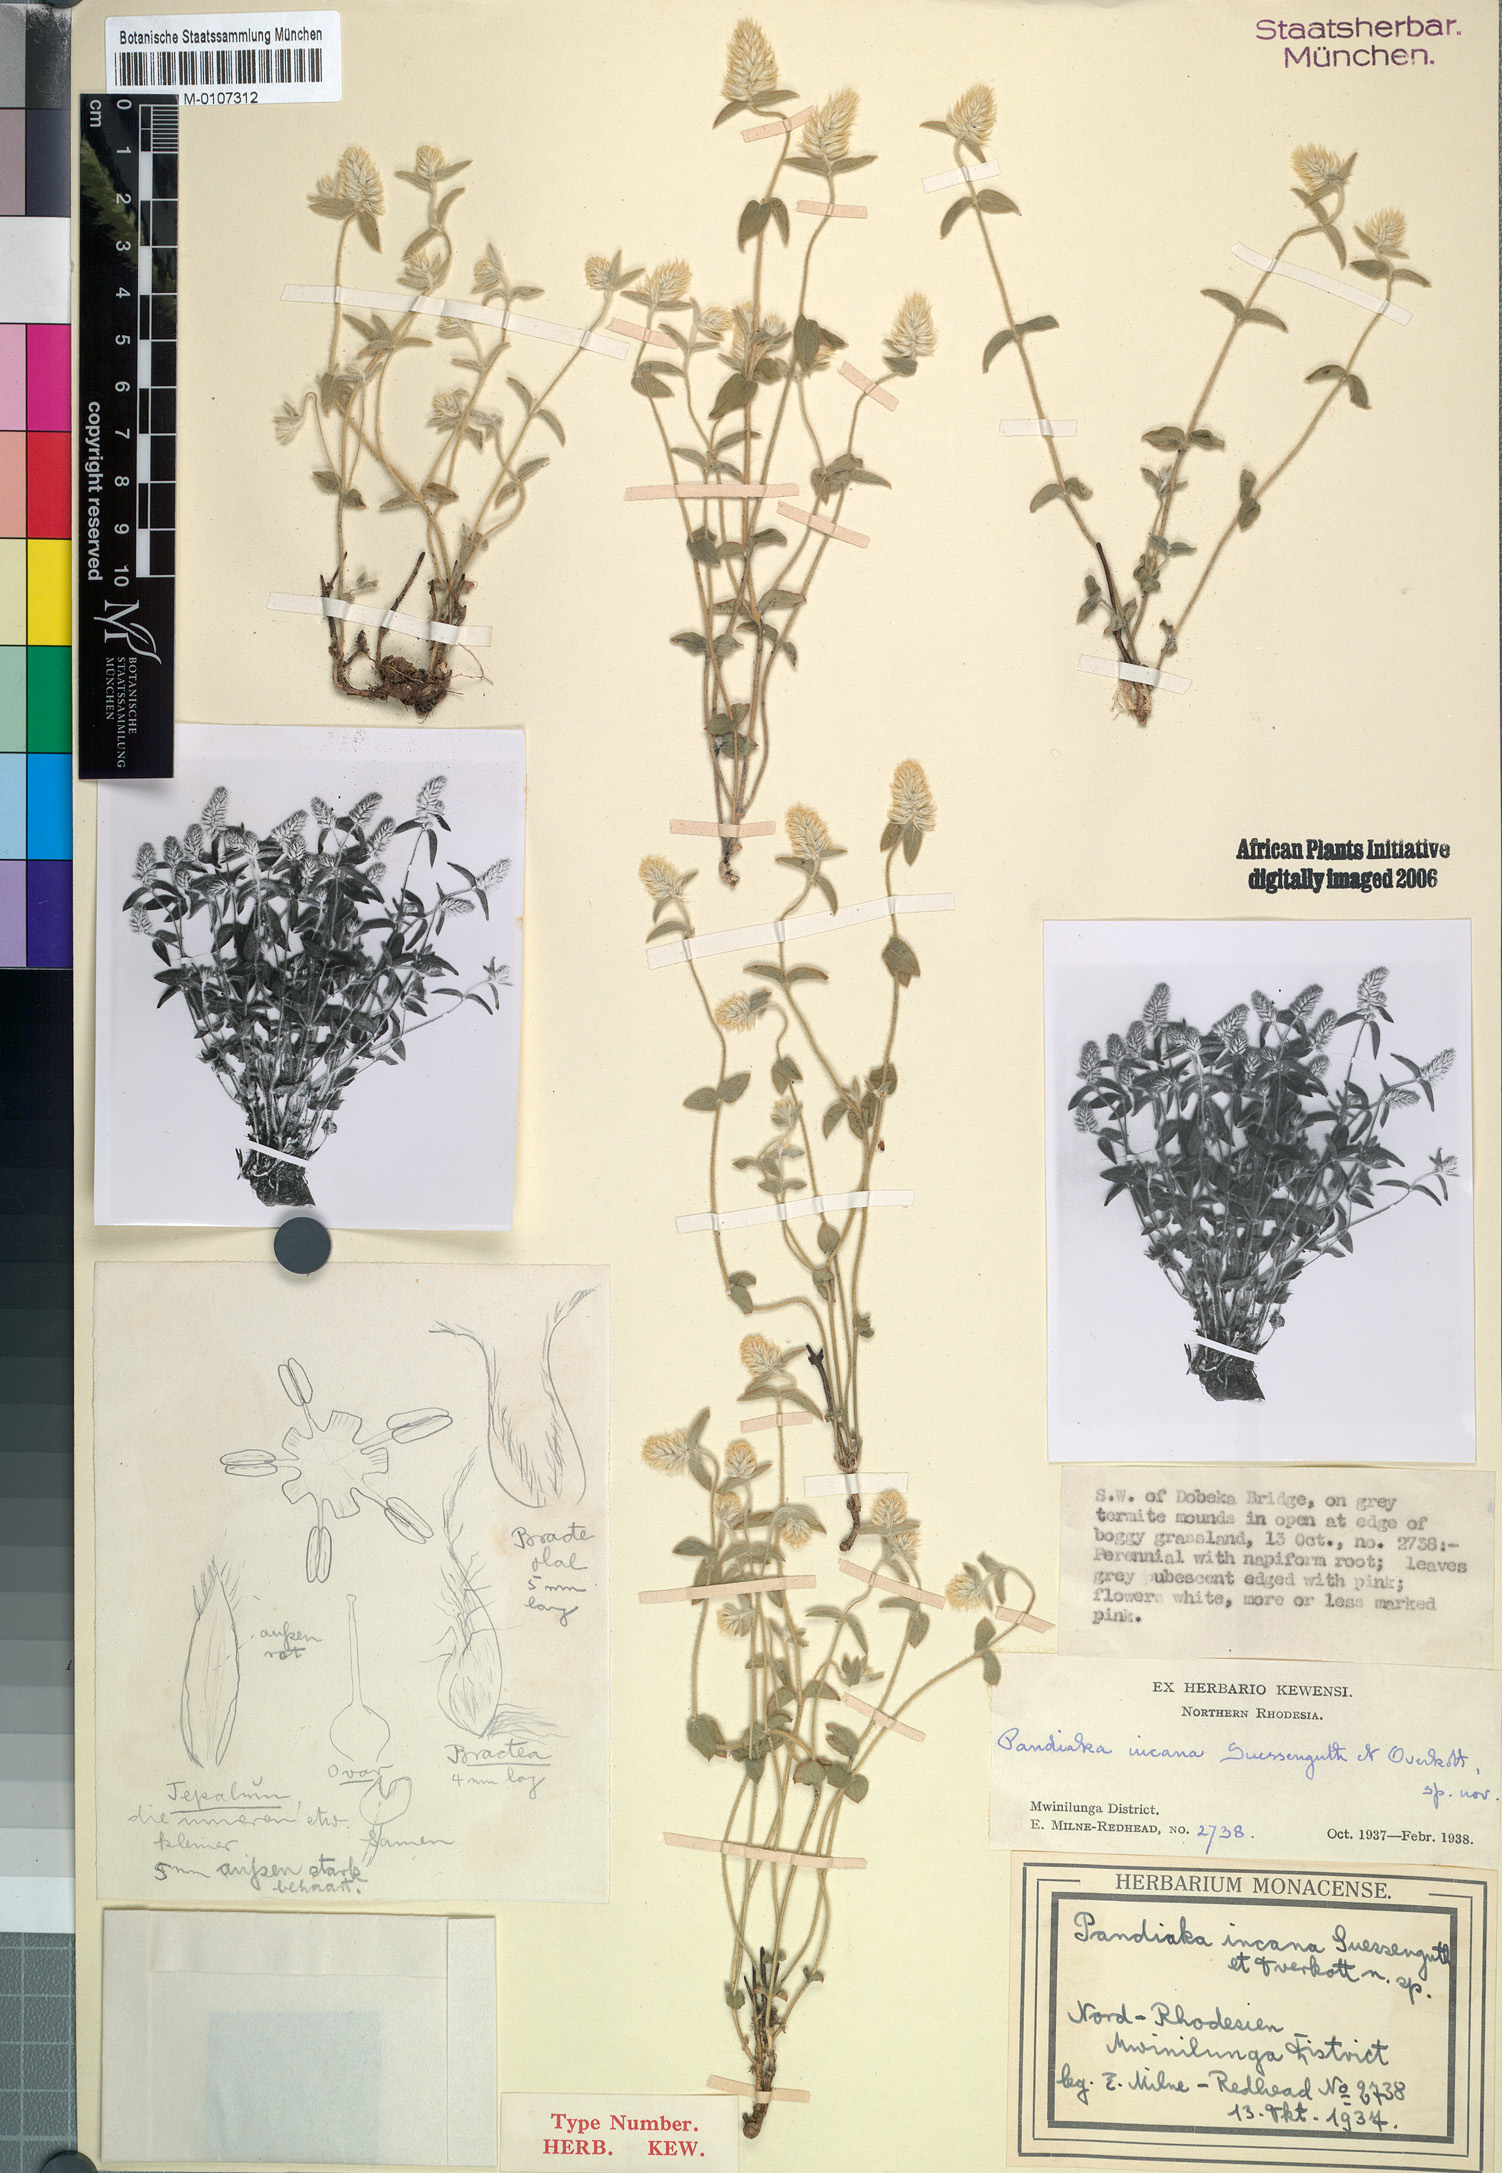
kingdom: Plantae
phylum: Tracheophyta
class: Magnoliopsida
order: Caryophyllales
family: Amaranthaceae
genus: Pandiaka
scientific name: Pandiaka ramulosa
